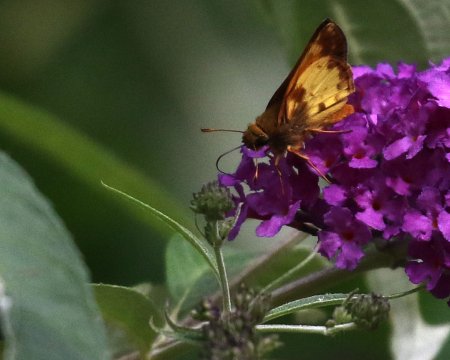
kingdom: Animalia
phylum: Arthropoda
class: Insecta
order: Lepidoptera
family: Hesperiidae
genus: Lon
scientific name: Lon zabulon
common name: Zabulon Skipper
